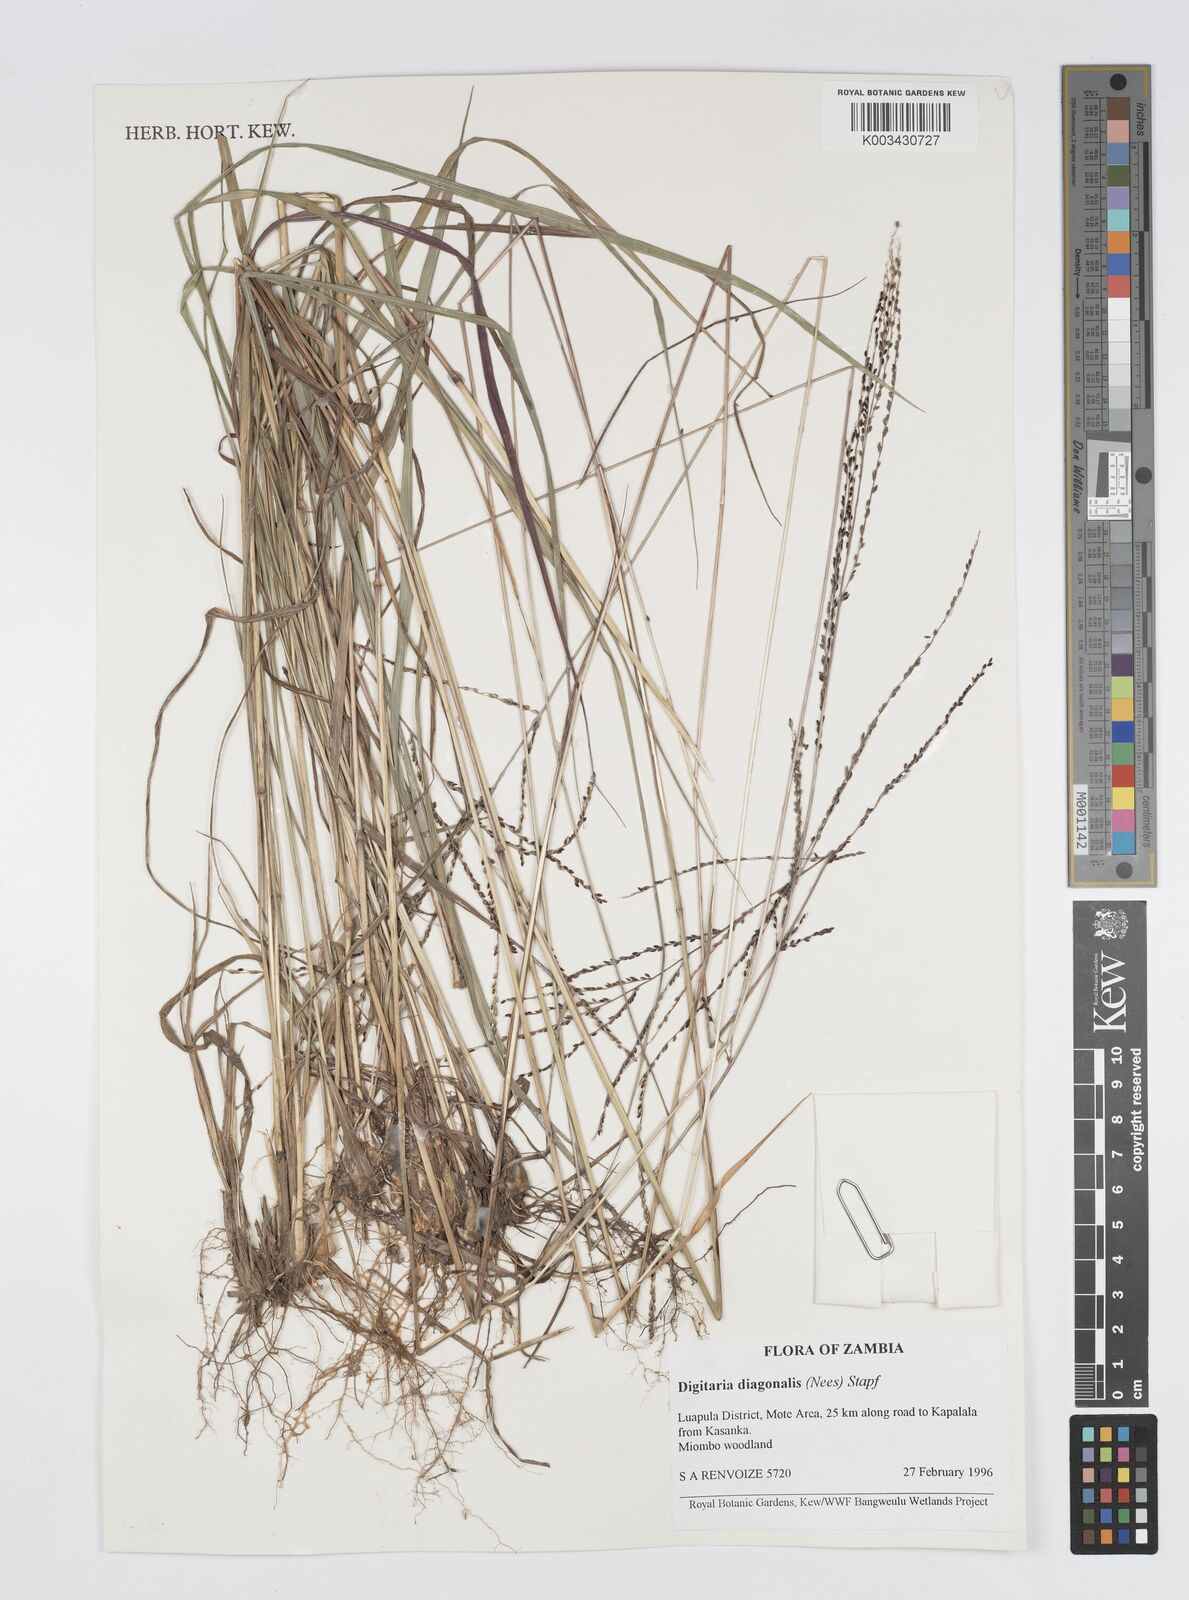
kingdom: Plantae
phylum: Tracheophyta
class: Liliopsida
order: Poales
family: Poaceae
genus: Digitaria
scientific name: Digitaria diagonalis
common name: Brown-seed finger grass
